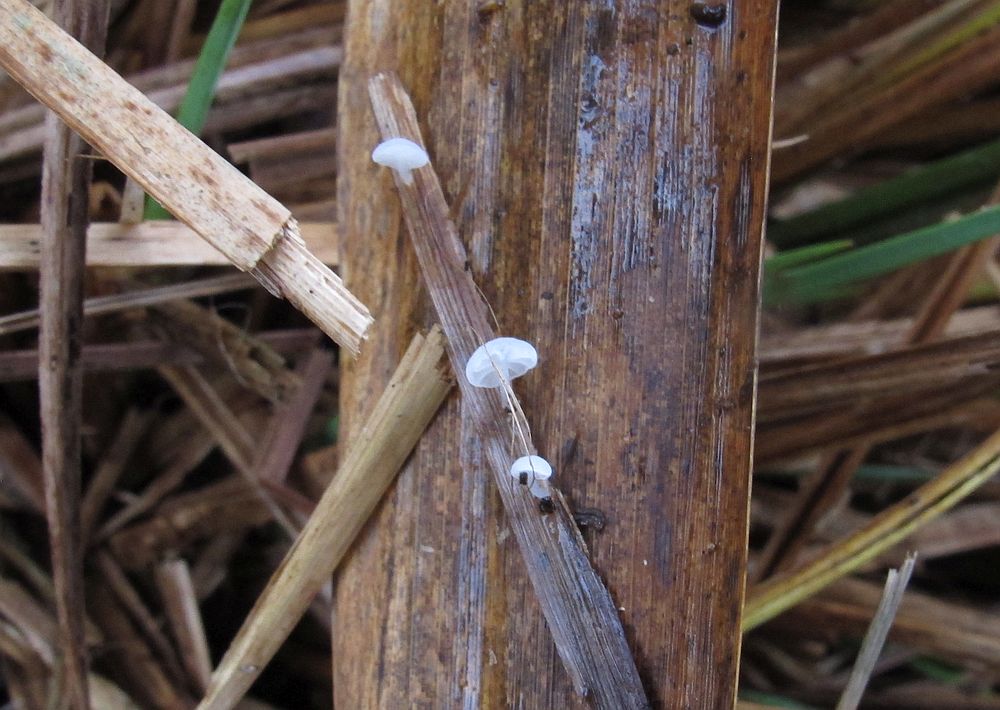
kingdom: Fungi
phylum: Basidiomycota
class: Agaricomycetes
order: Agaricales
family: Mycenaceae
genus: Resinomycena
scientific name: Resinomycena saccharifera
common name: sukkerhat
